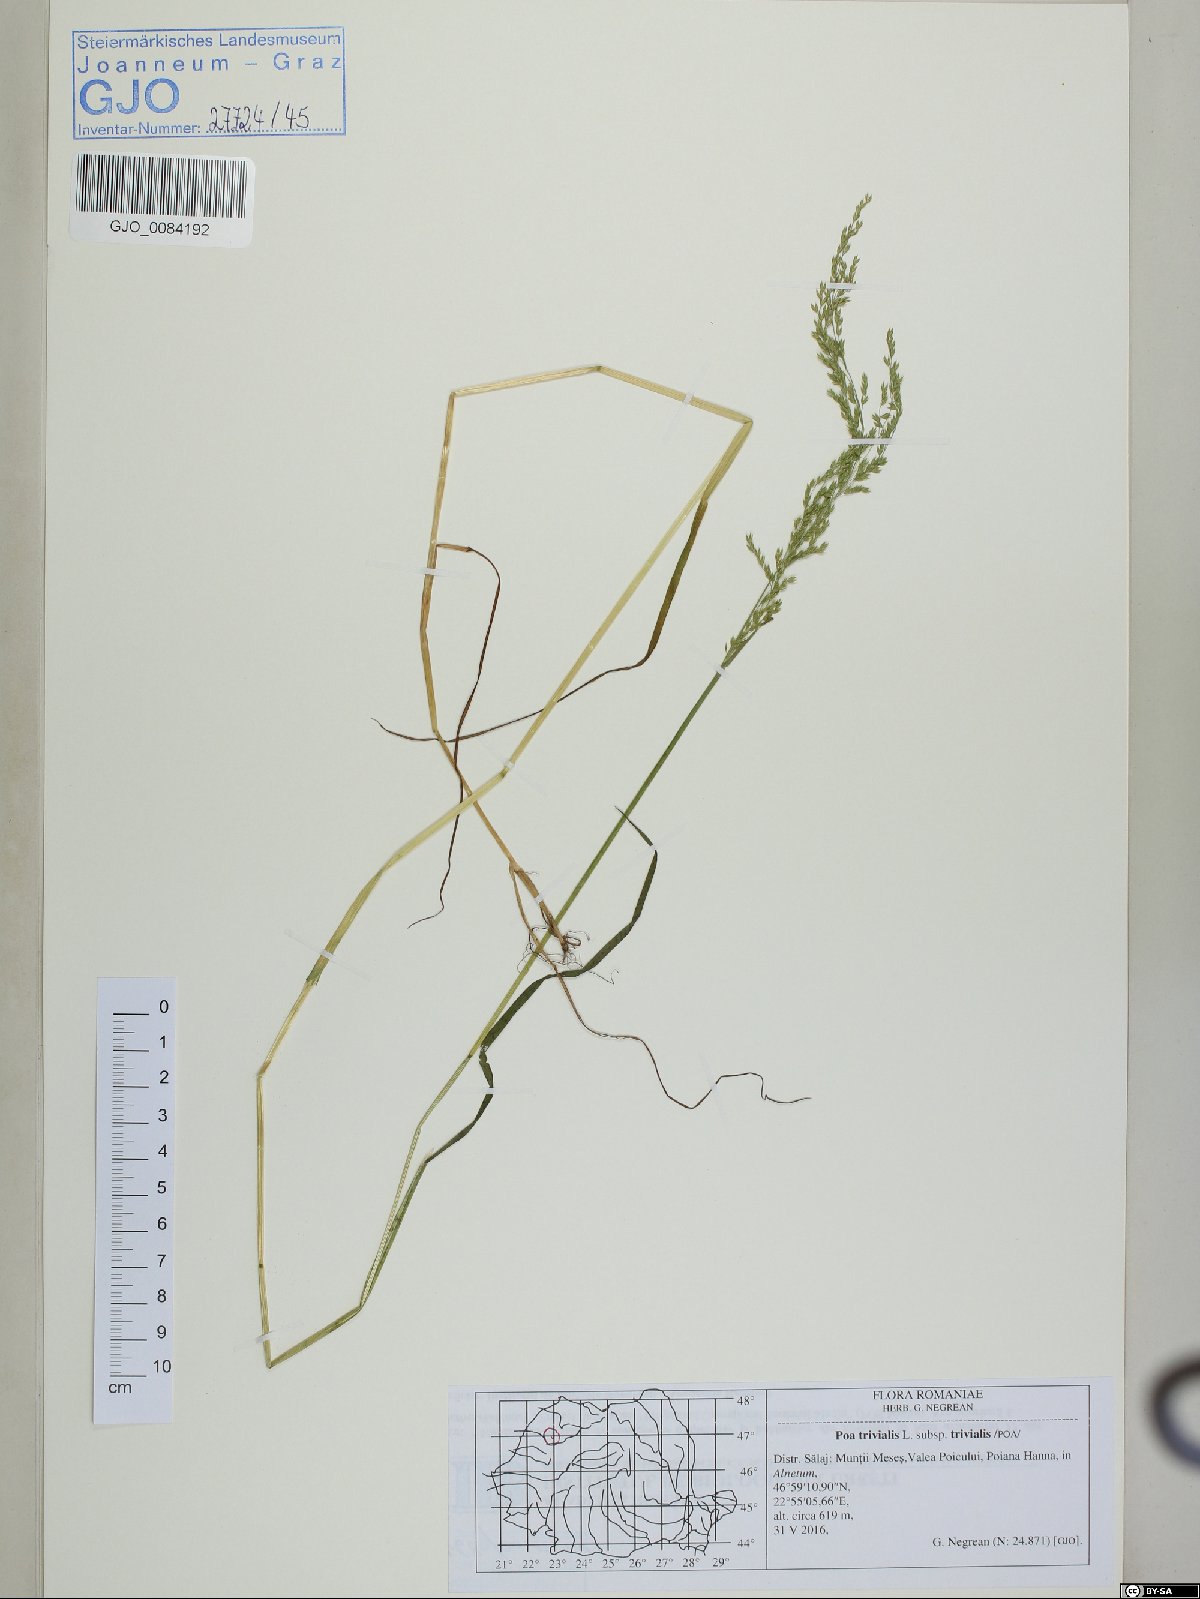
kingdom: Plantae
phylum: Tracheophyta
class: Liliopsida
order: Poales
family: Poaceae
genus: Poa
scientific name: Poa trivialis
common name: Rough bluegrass
